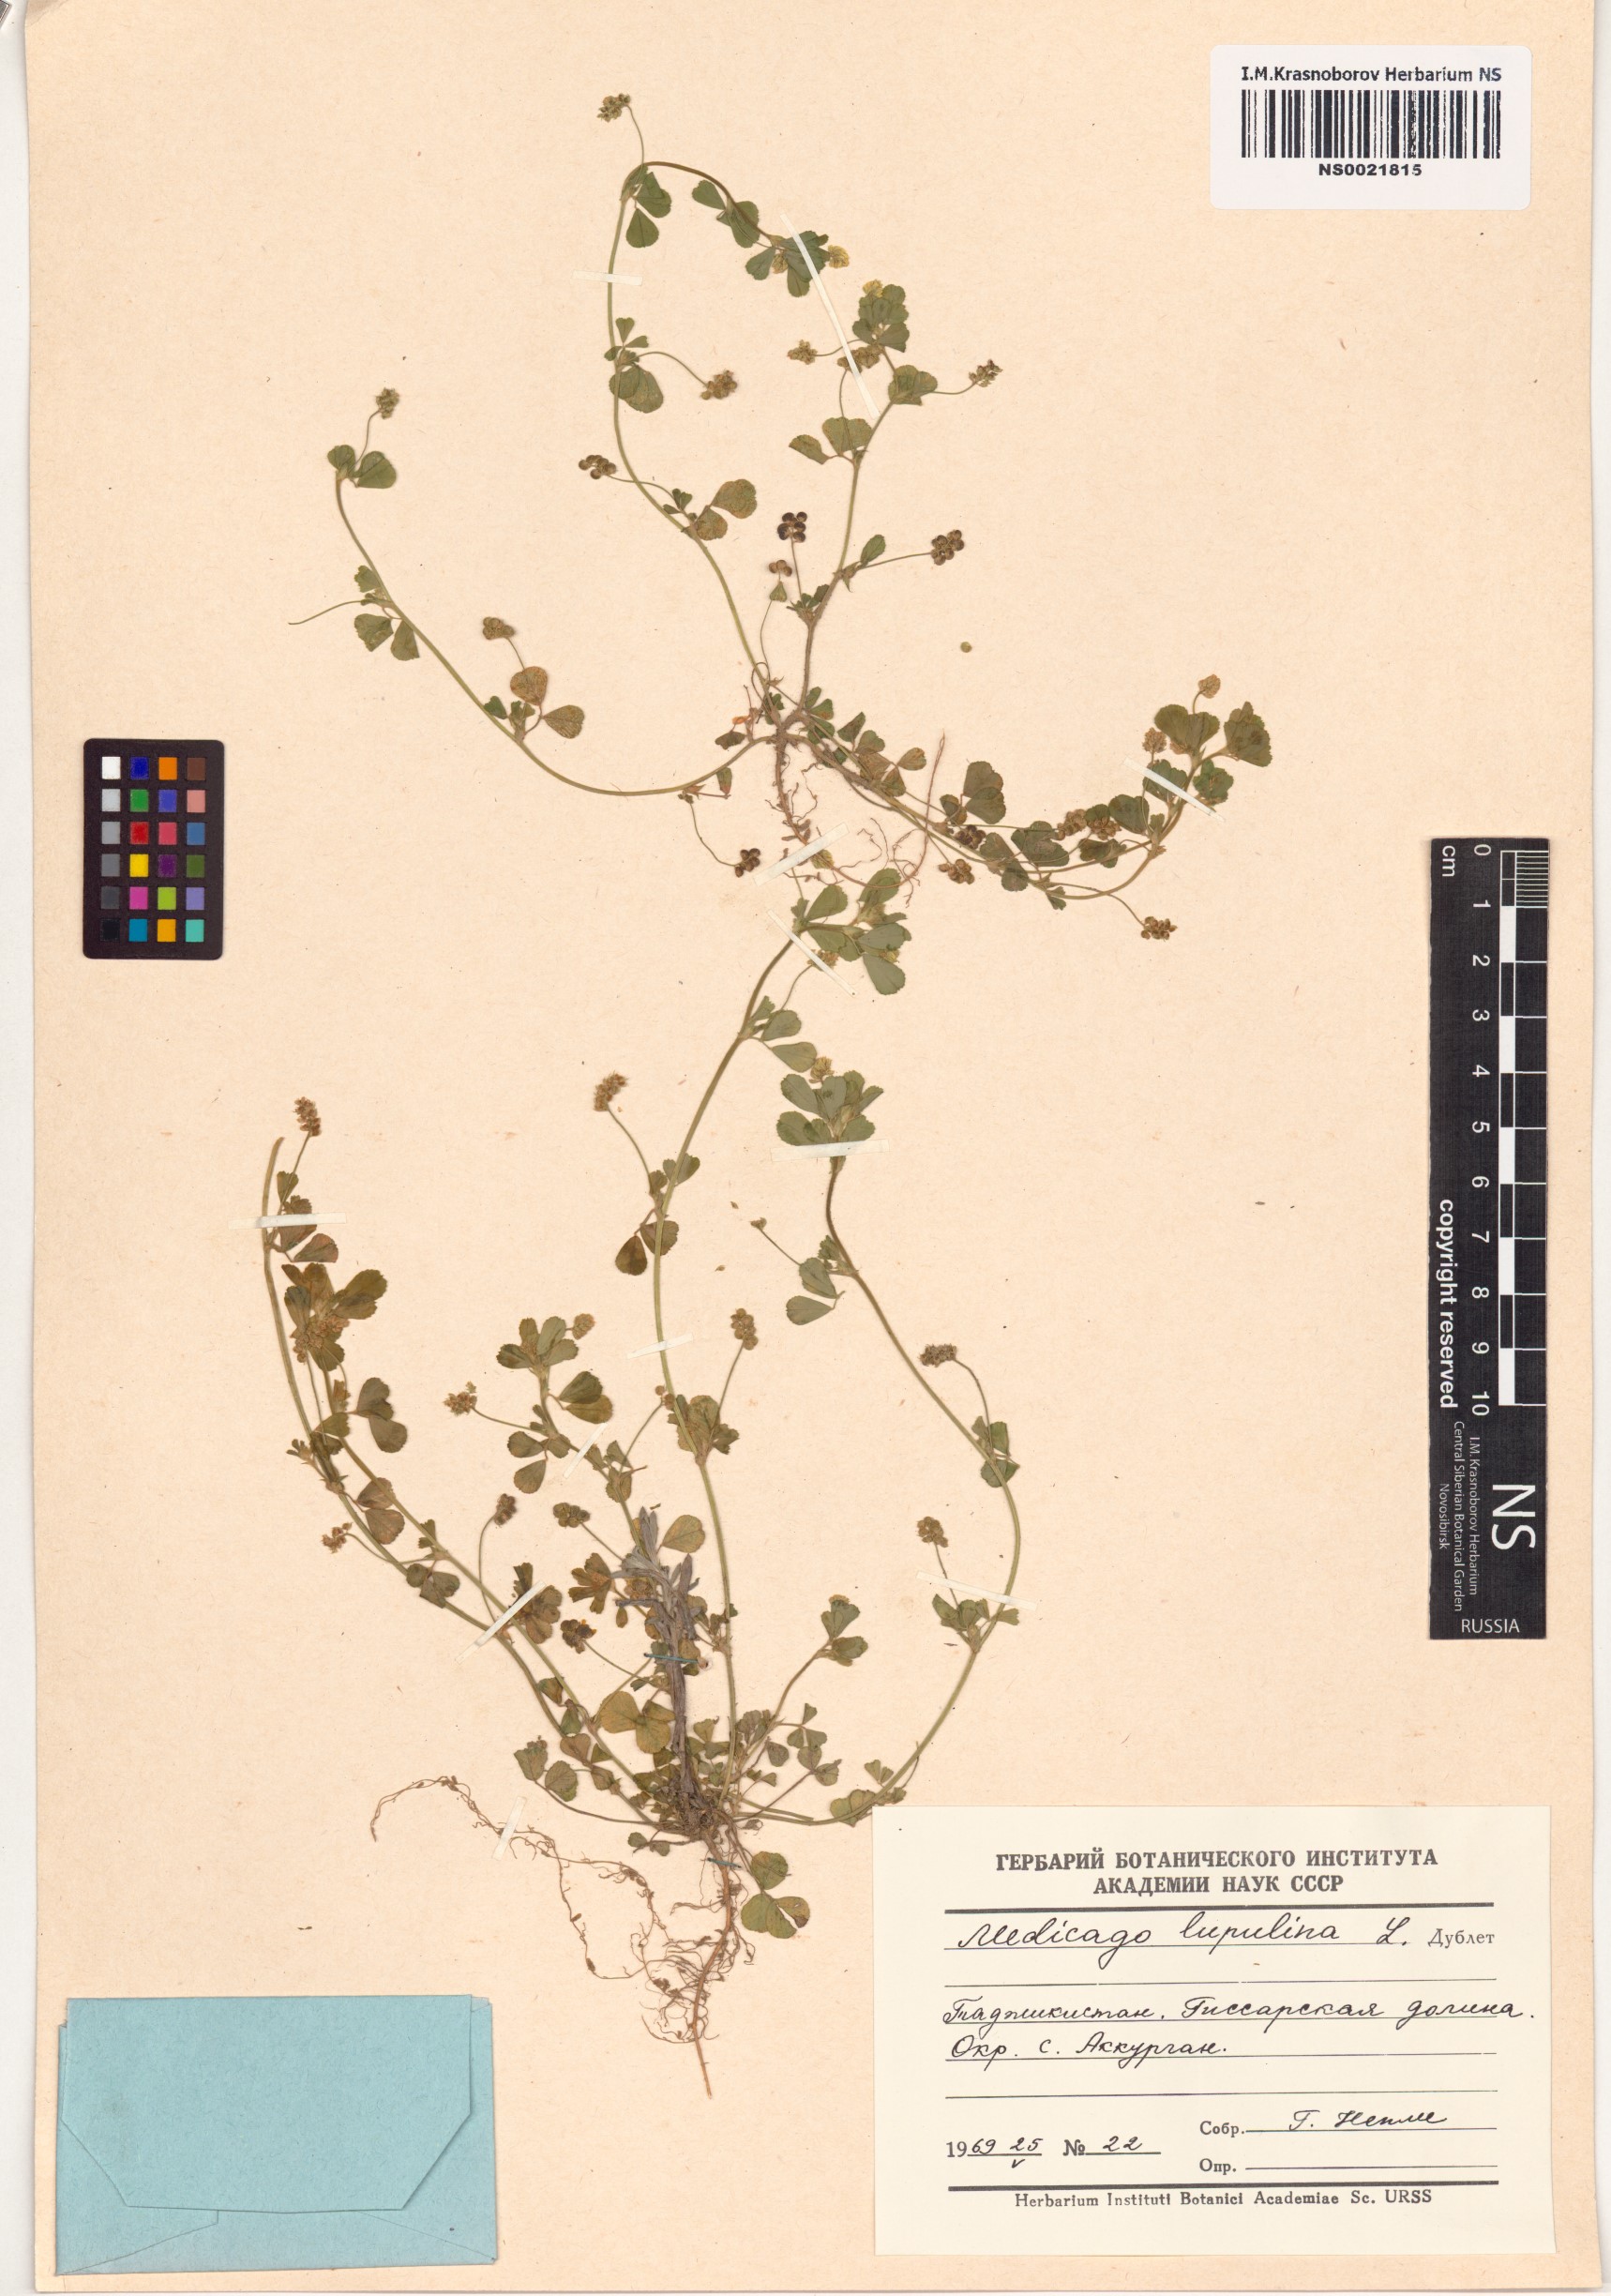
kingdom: Plantae
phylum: Tracheophyta
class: Magnoliopsida
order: Fabales
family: Fabaceae
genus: Medicago
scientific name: Medicago lupulina
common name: Black medick
